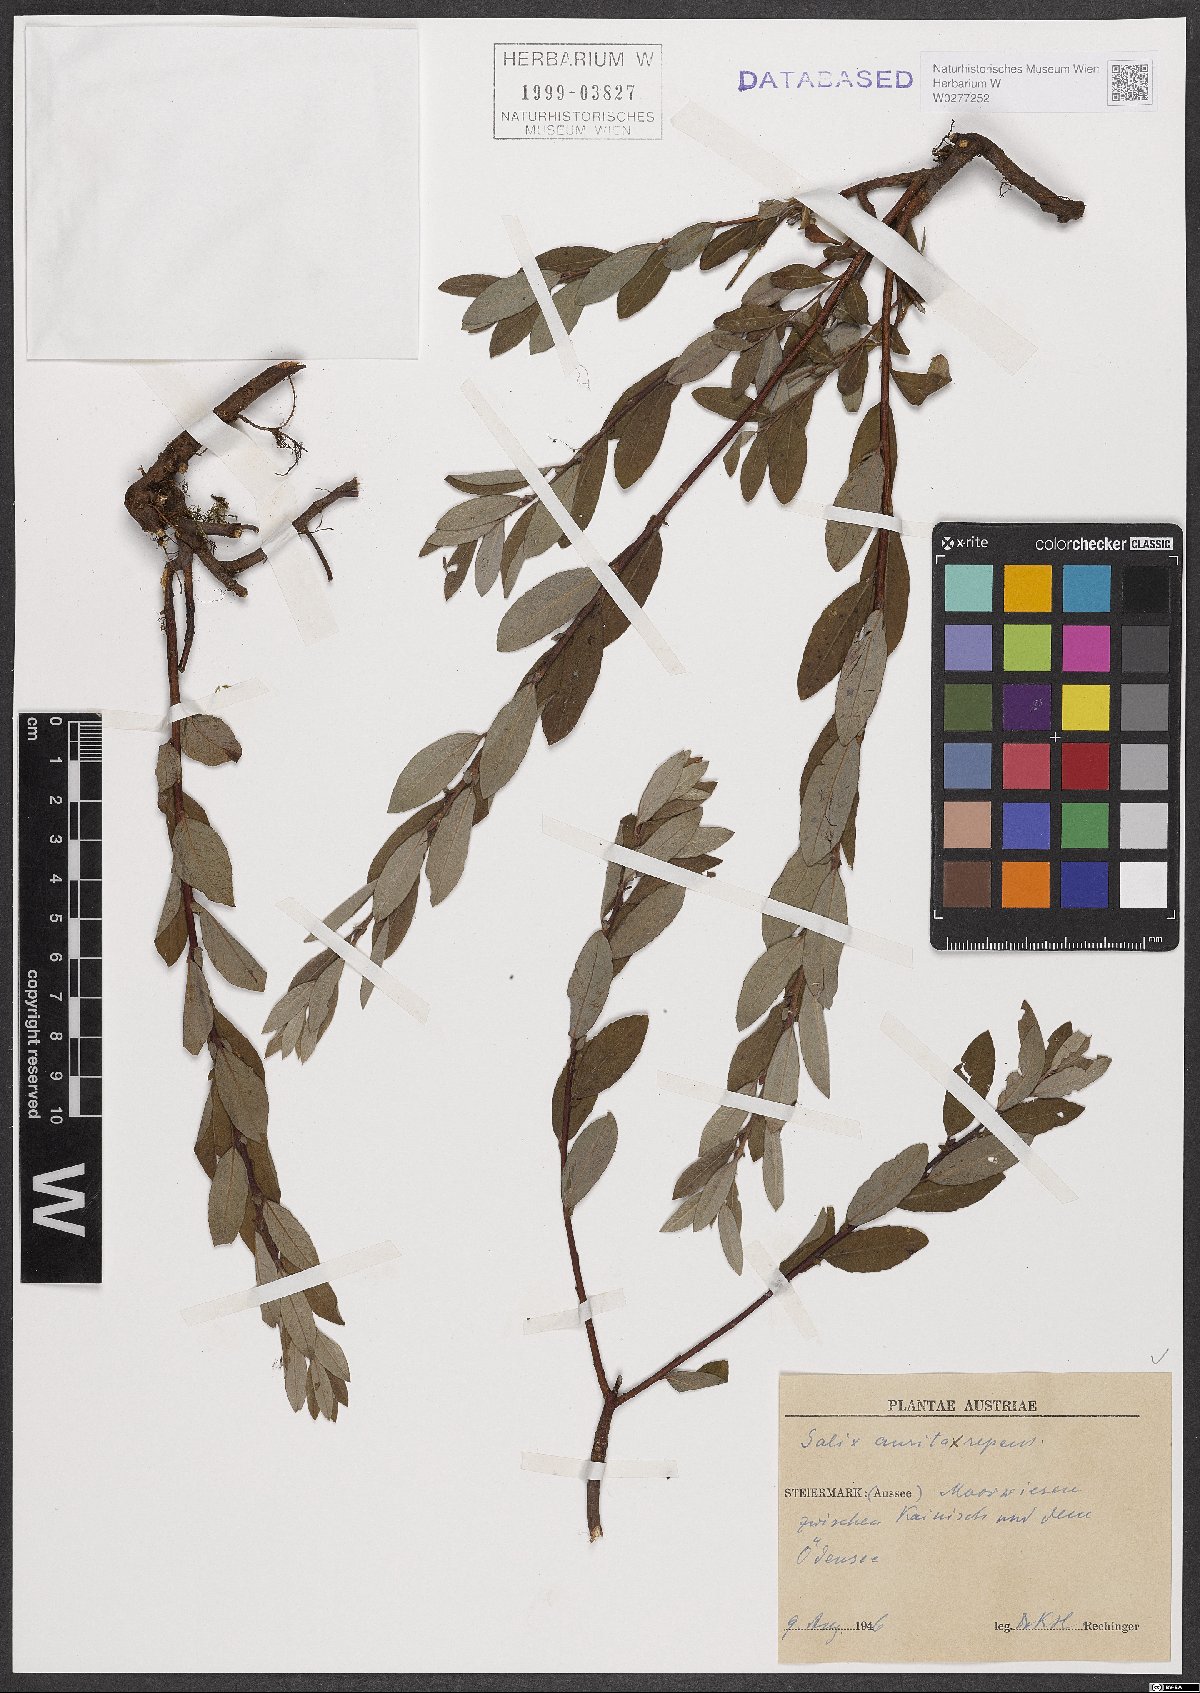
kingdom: Plantae
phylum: Tracheophyta
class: Magnoliopsida
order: Malpighiales
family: Salicaceae
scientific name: Salicaceae
